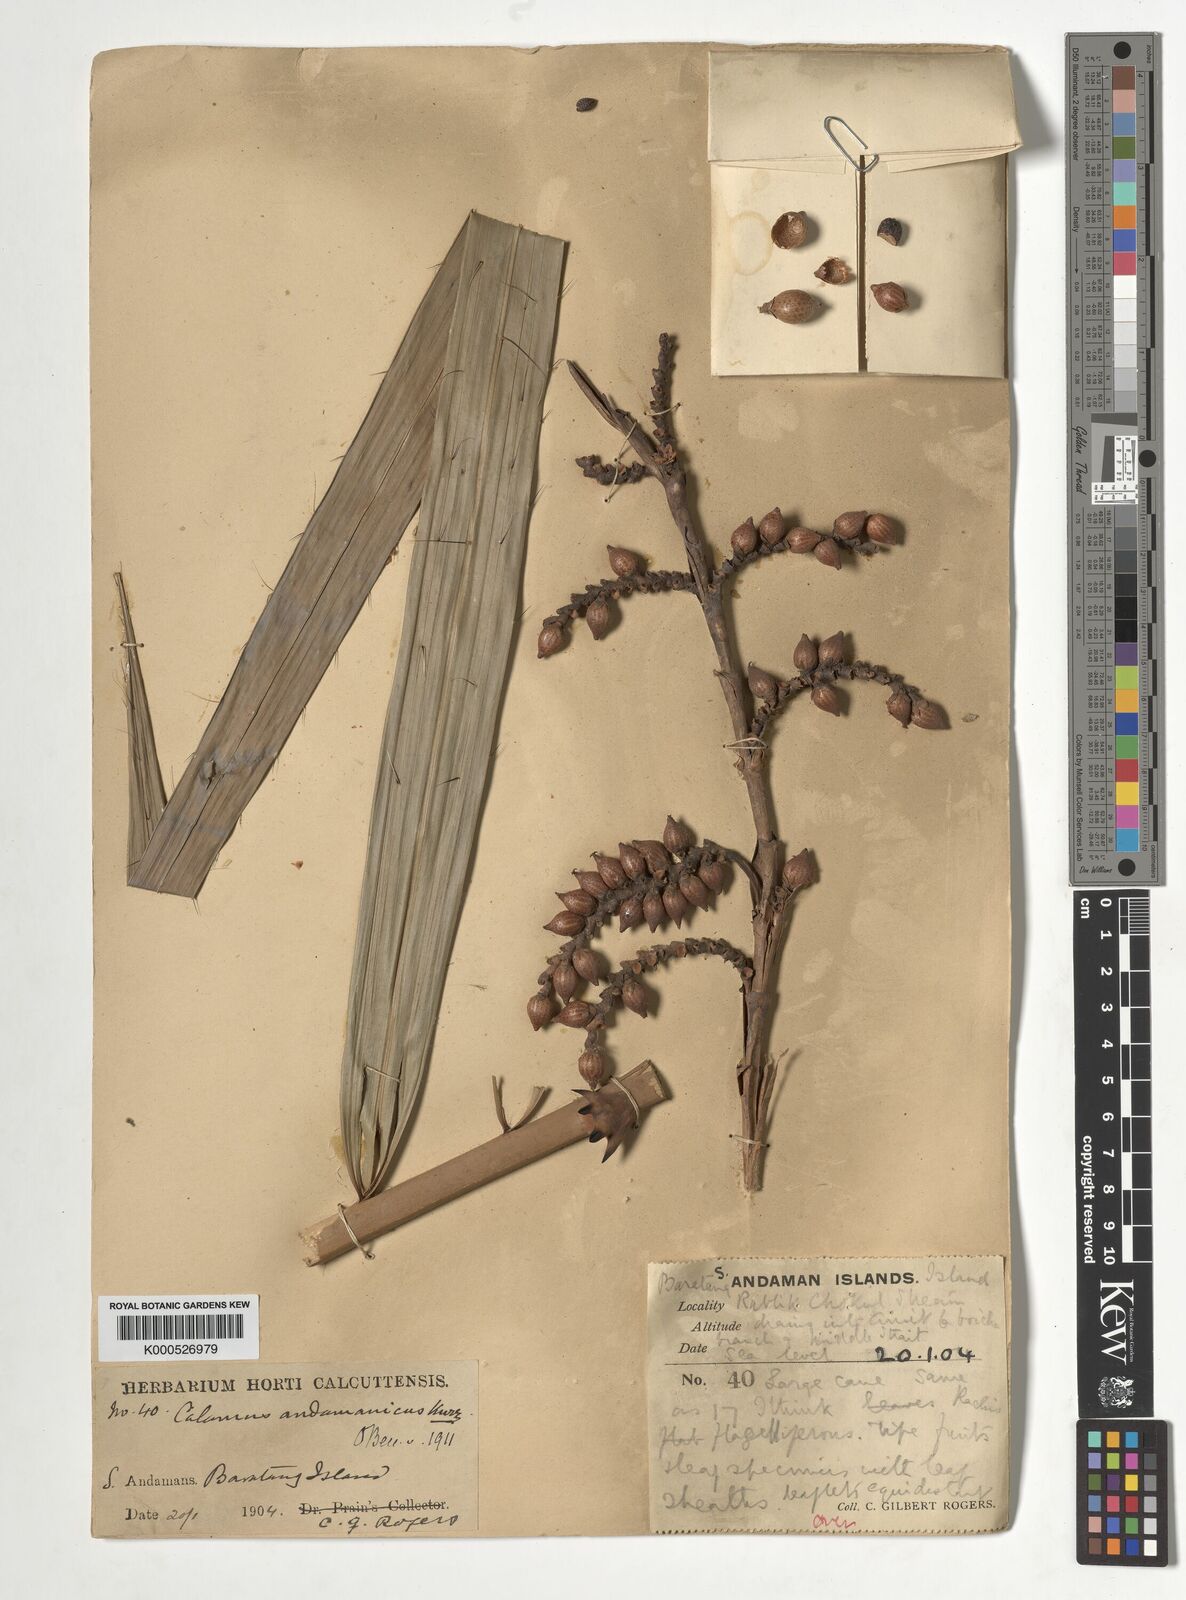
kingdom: Plantae
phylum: Tracheophyta
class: Liliopsida
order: Arecales
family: Arecaceae
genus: Calamus
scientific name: Calamus andamanicus
